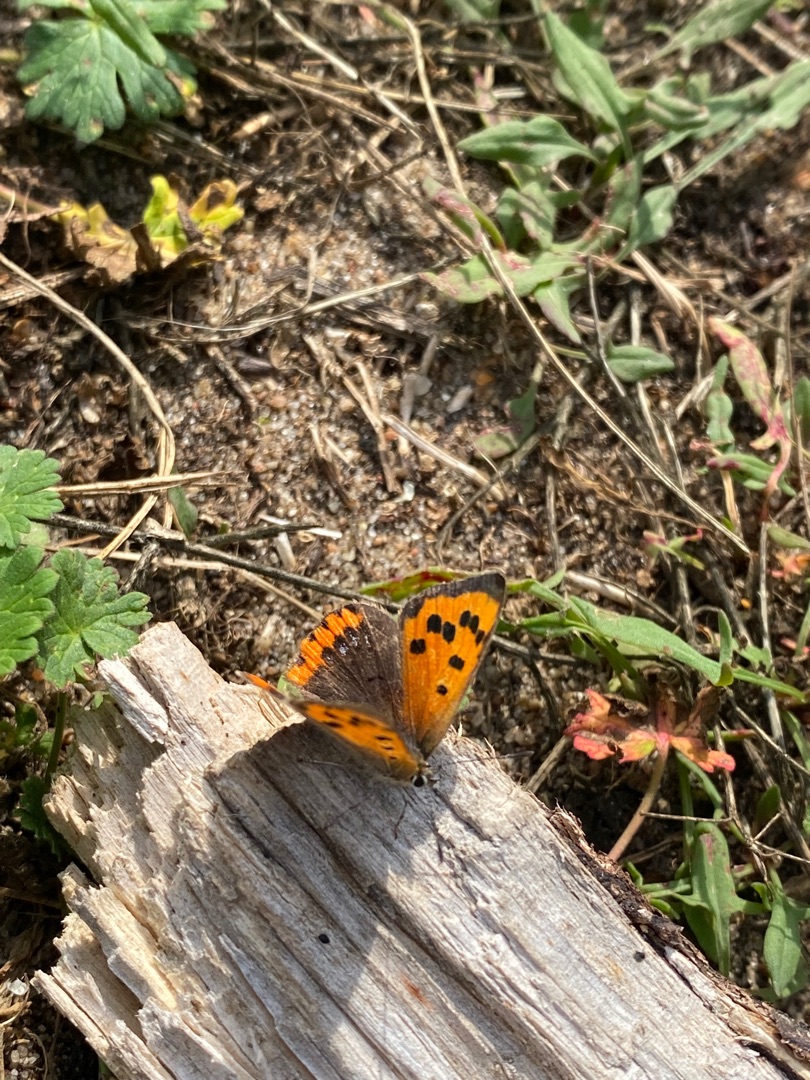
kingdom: Animalia
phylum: Arthropoda
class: Insecta
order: Lepidoptera
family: Lycaenidae
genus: Lycaena
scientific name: Lycaena phlaeas
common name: Lille ildfugl
